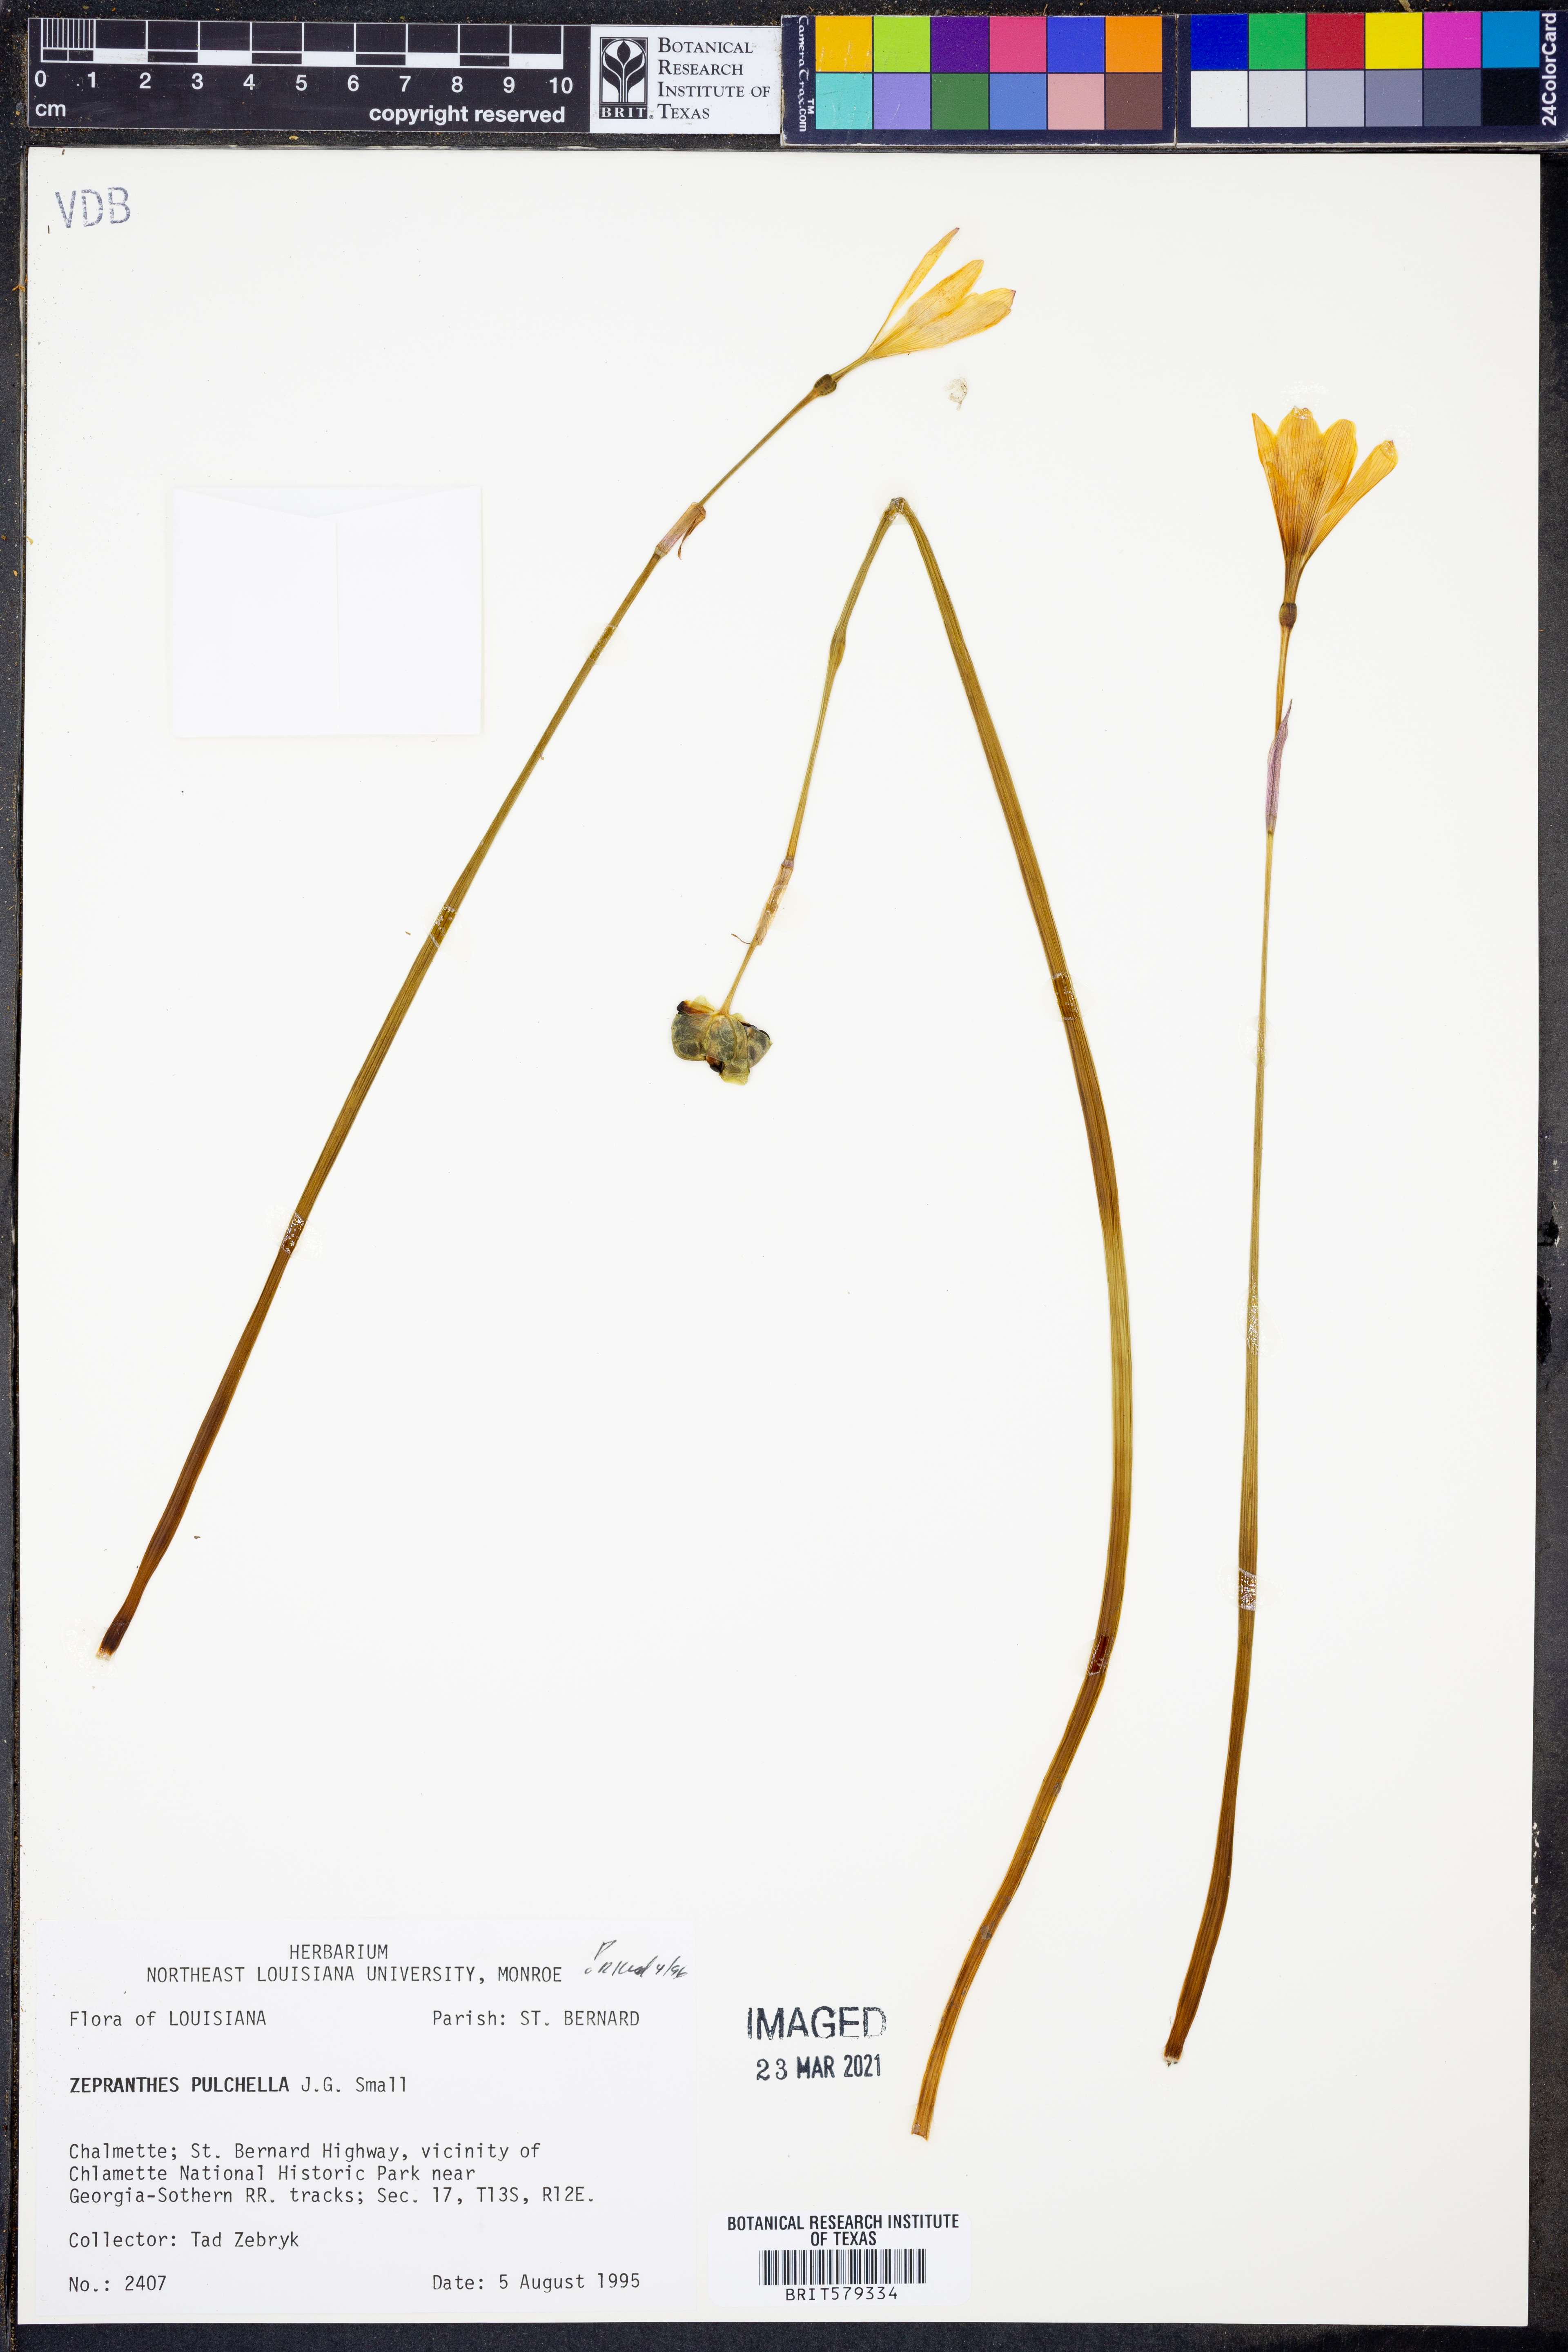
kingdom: Plantae
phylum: Tracheophyta
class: Liliopsida
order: Asparagales
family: Amaryllidaceae
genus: Zephyranthes
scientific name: Zephyranthes pulchella
